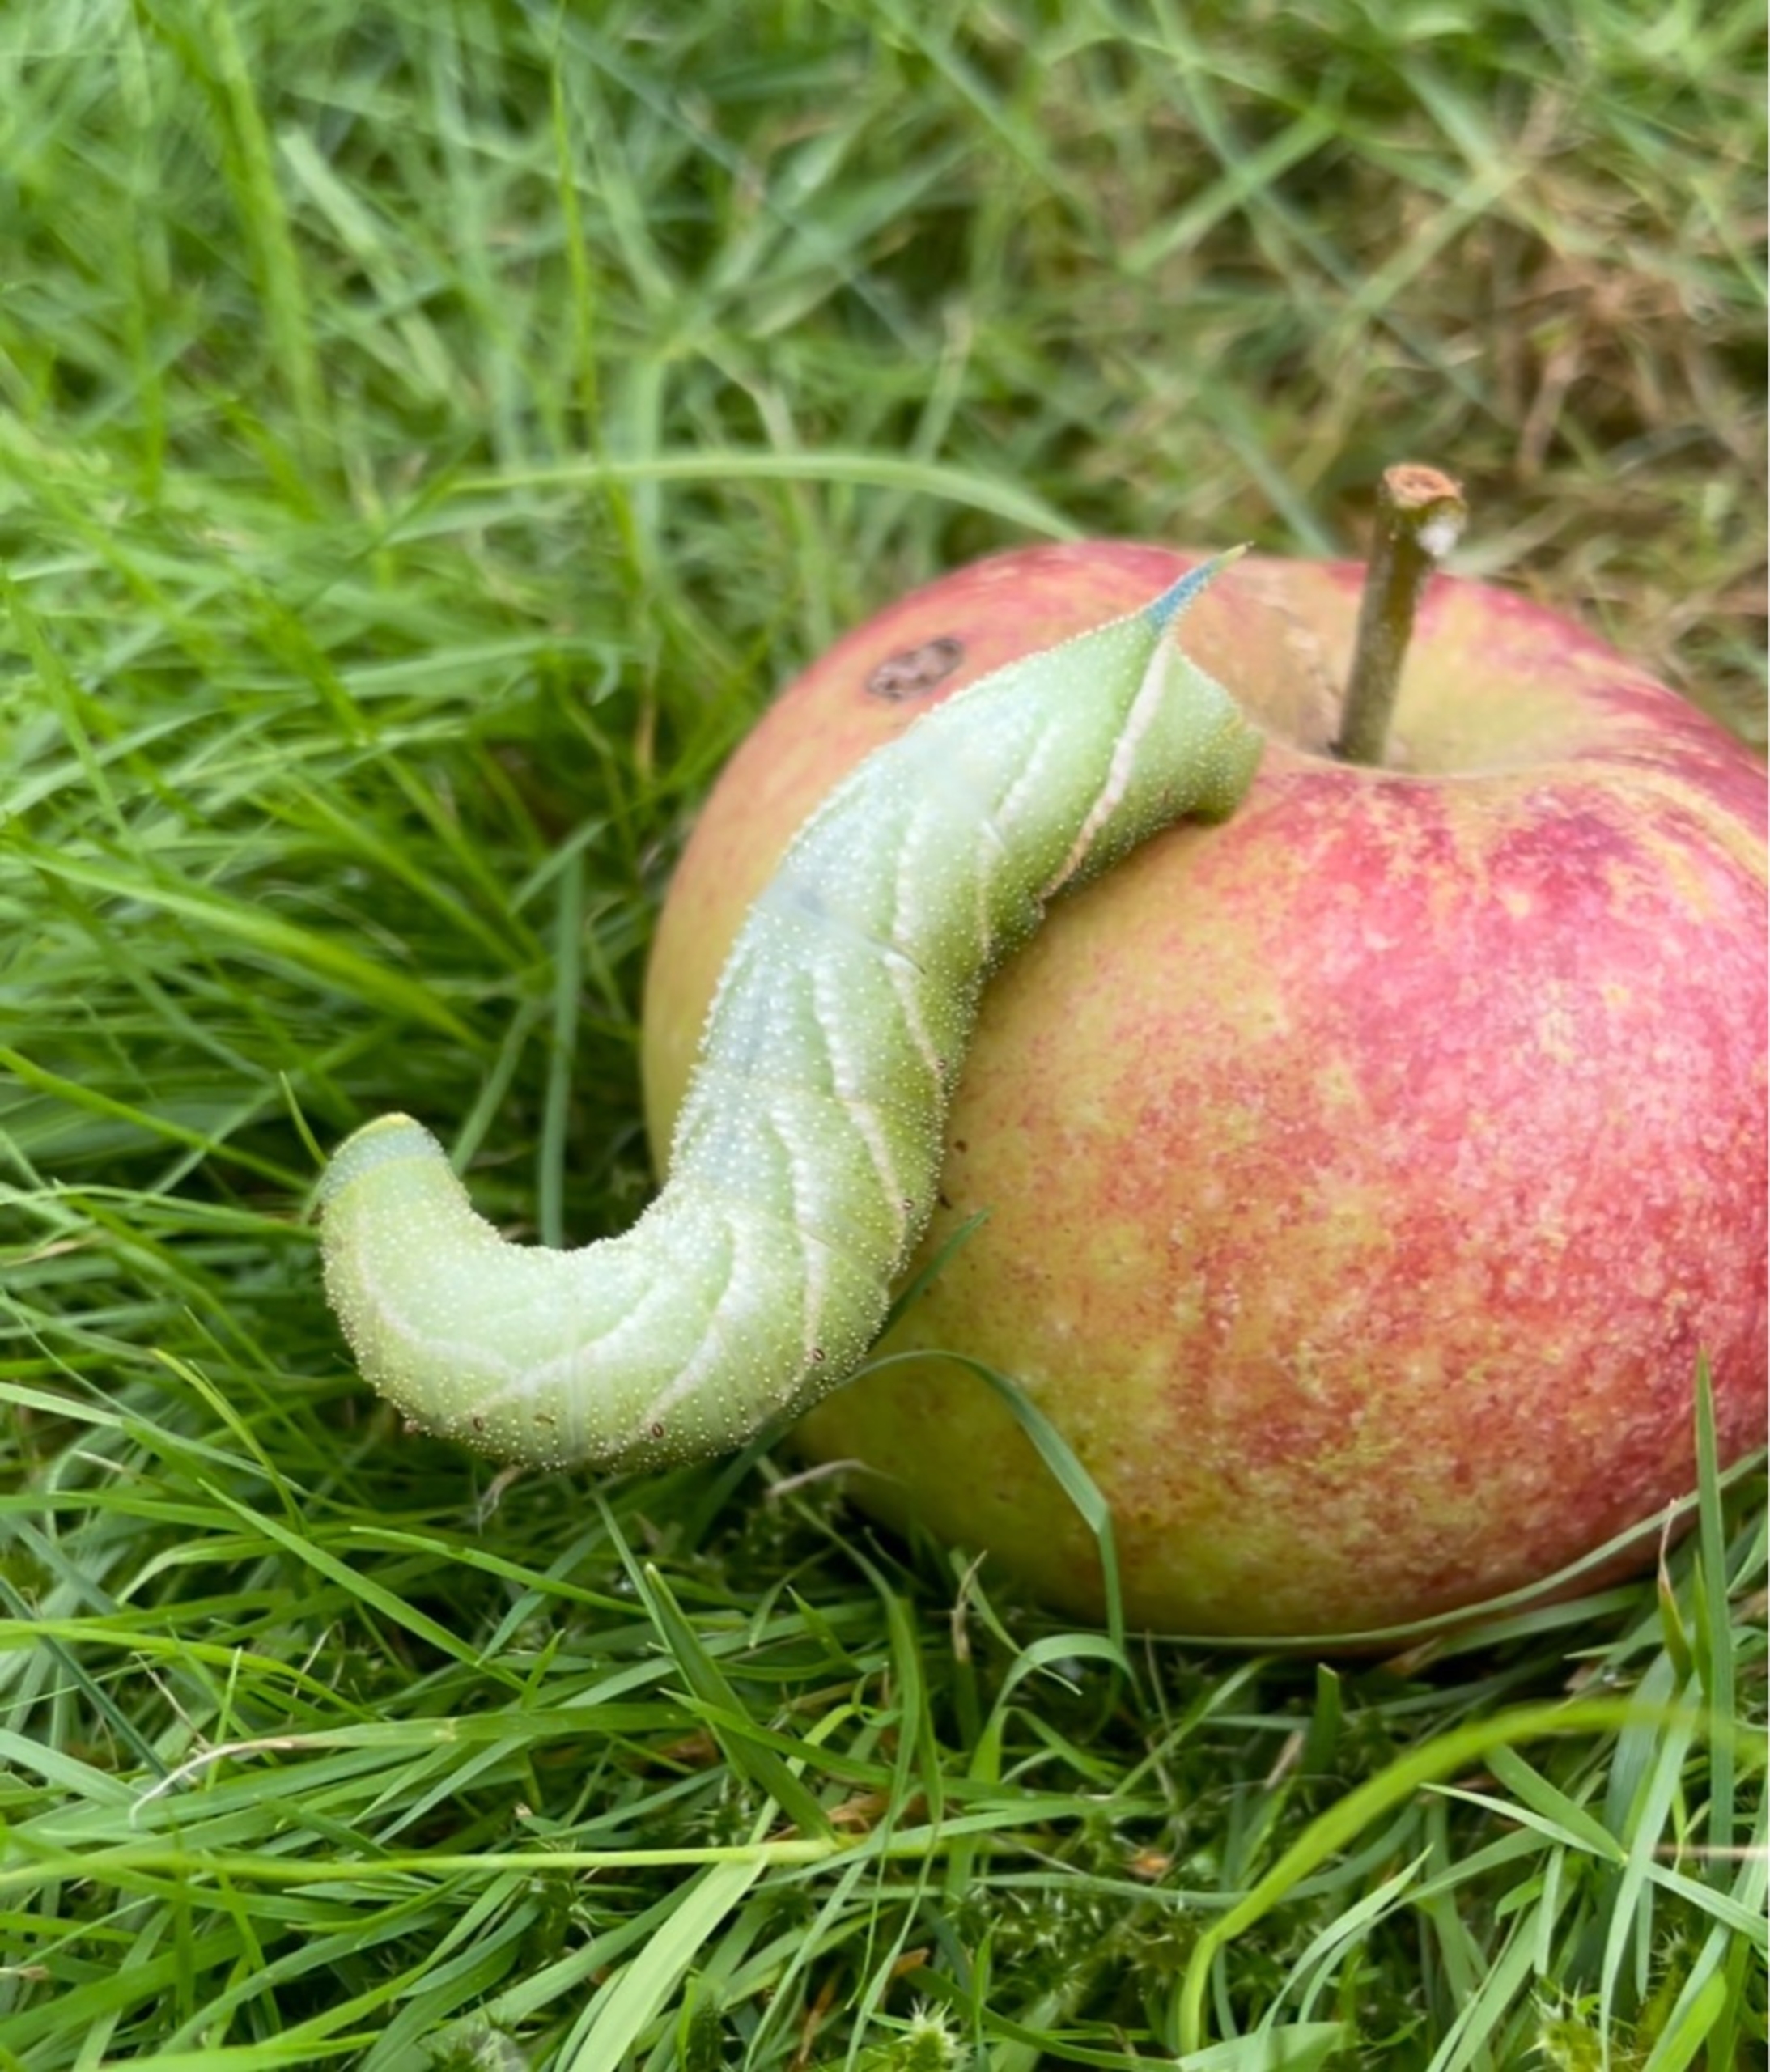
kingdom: Animalia
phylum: Arthropoda
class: Insecta
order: Lepidoptera
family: Sphingidae
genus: Smerinthus
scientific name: Smerinthus ocellata
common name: Aftenpåfugleøje
